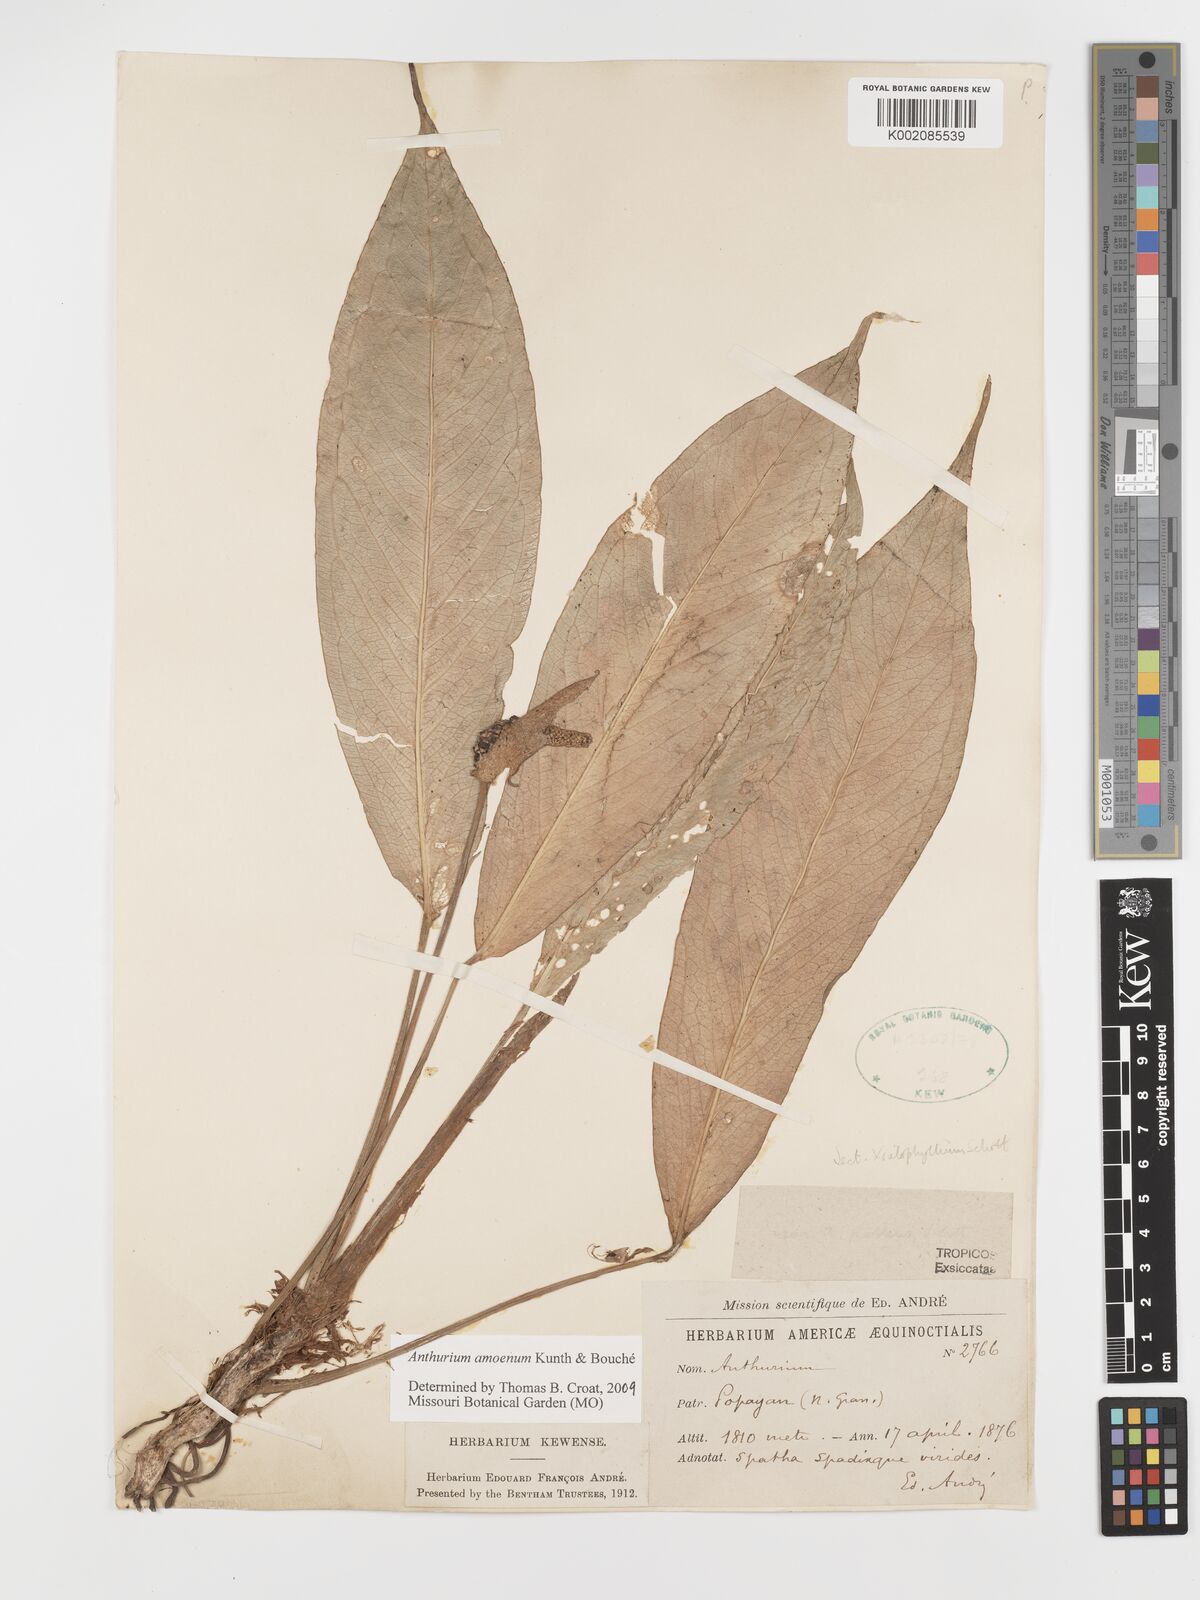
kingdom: Plantae
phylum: Tracheophyta
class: Liliopsida
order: Alismatales
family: Araceae
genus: Anthurium
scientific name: Anthurium amoenum
